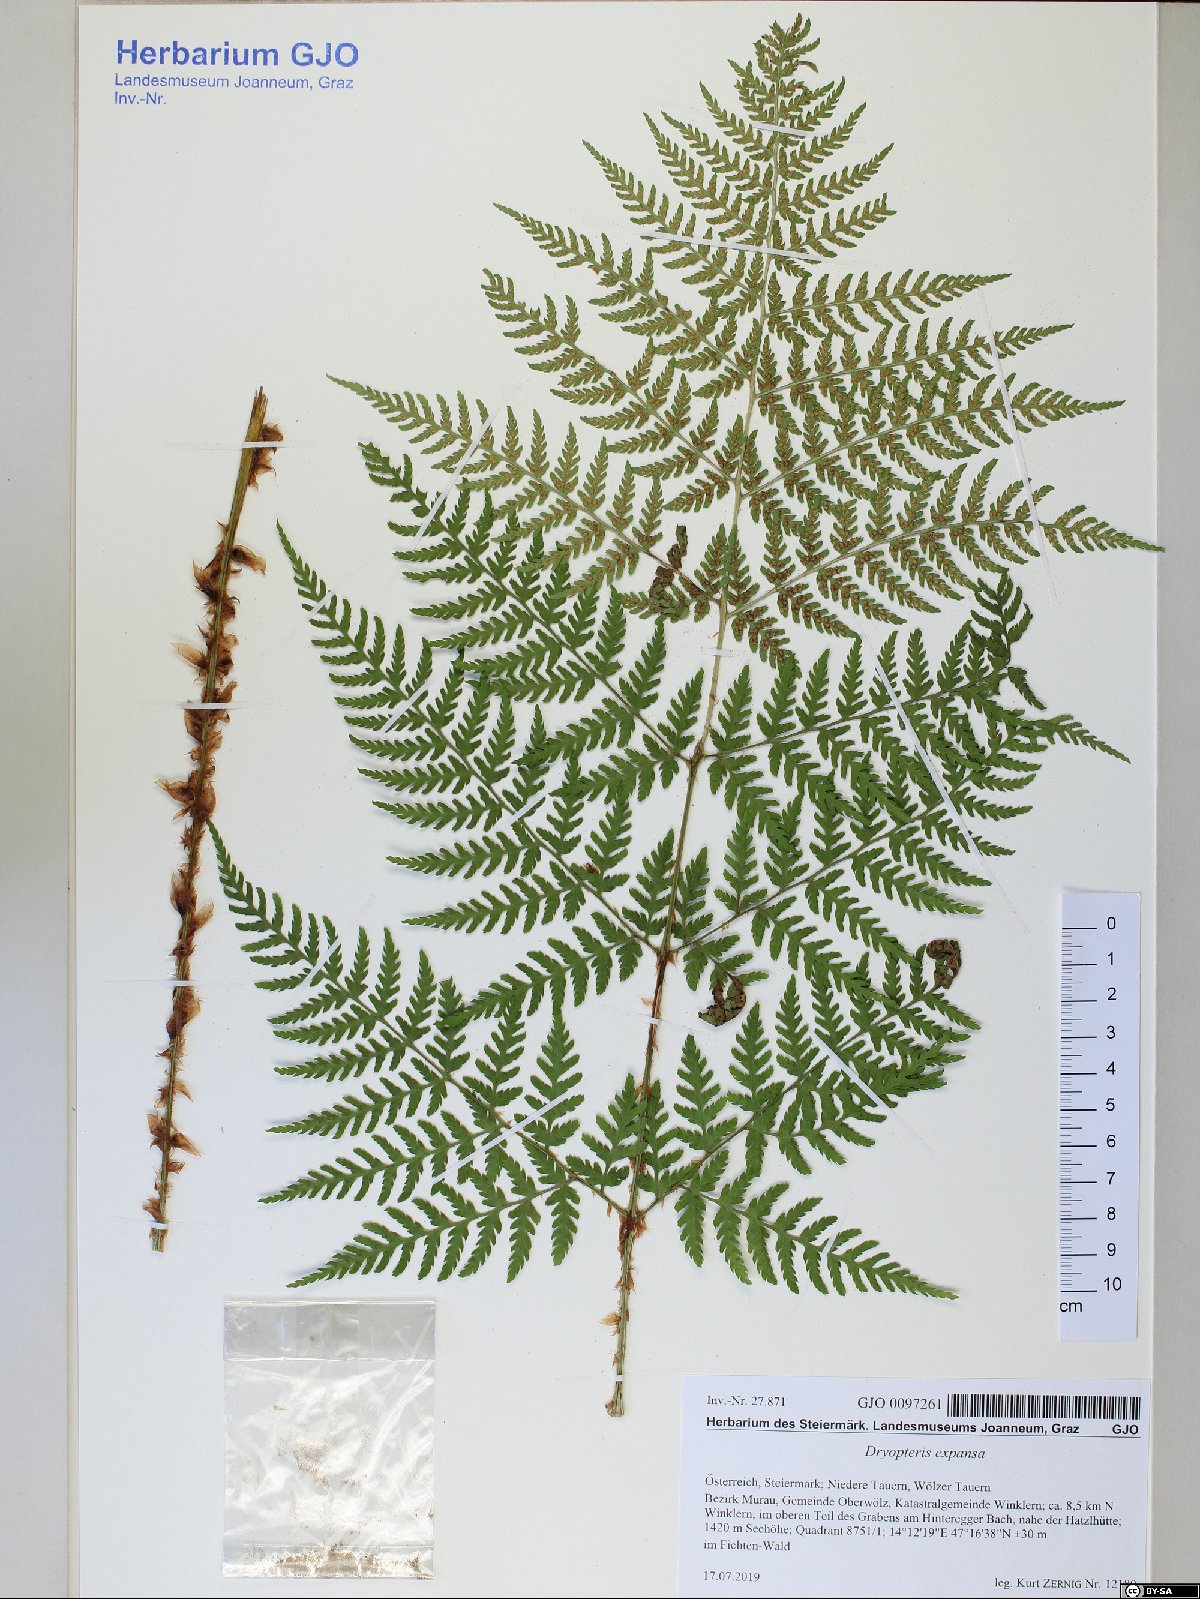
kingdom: Plantae
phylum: Tracheophyta
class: Polypodiopsida
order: Polypodiales
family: Dryopteridaceae
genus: Dryopteris
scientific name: Dryopteris expansa
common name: Northern buckler fern
